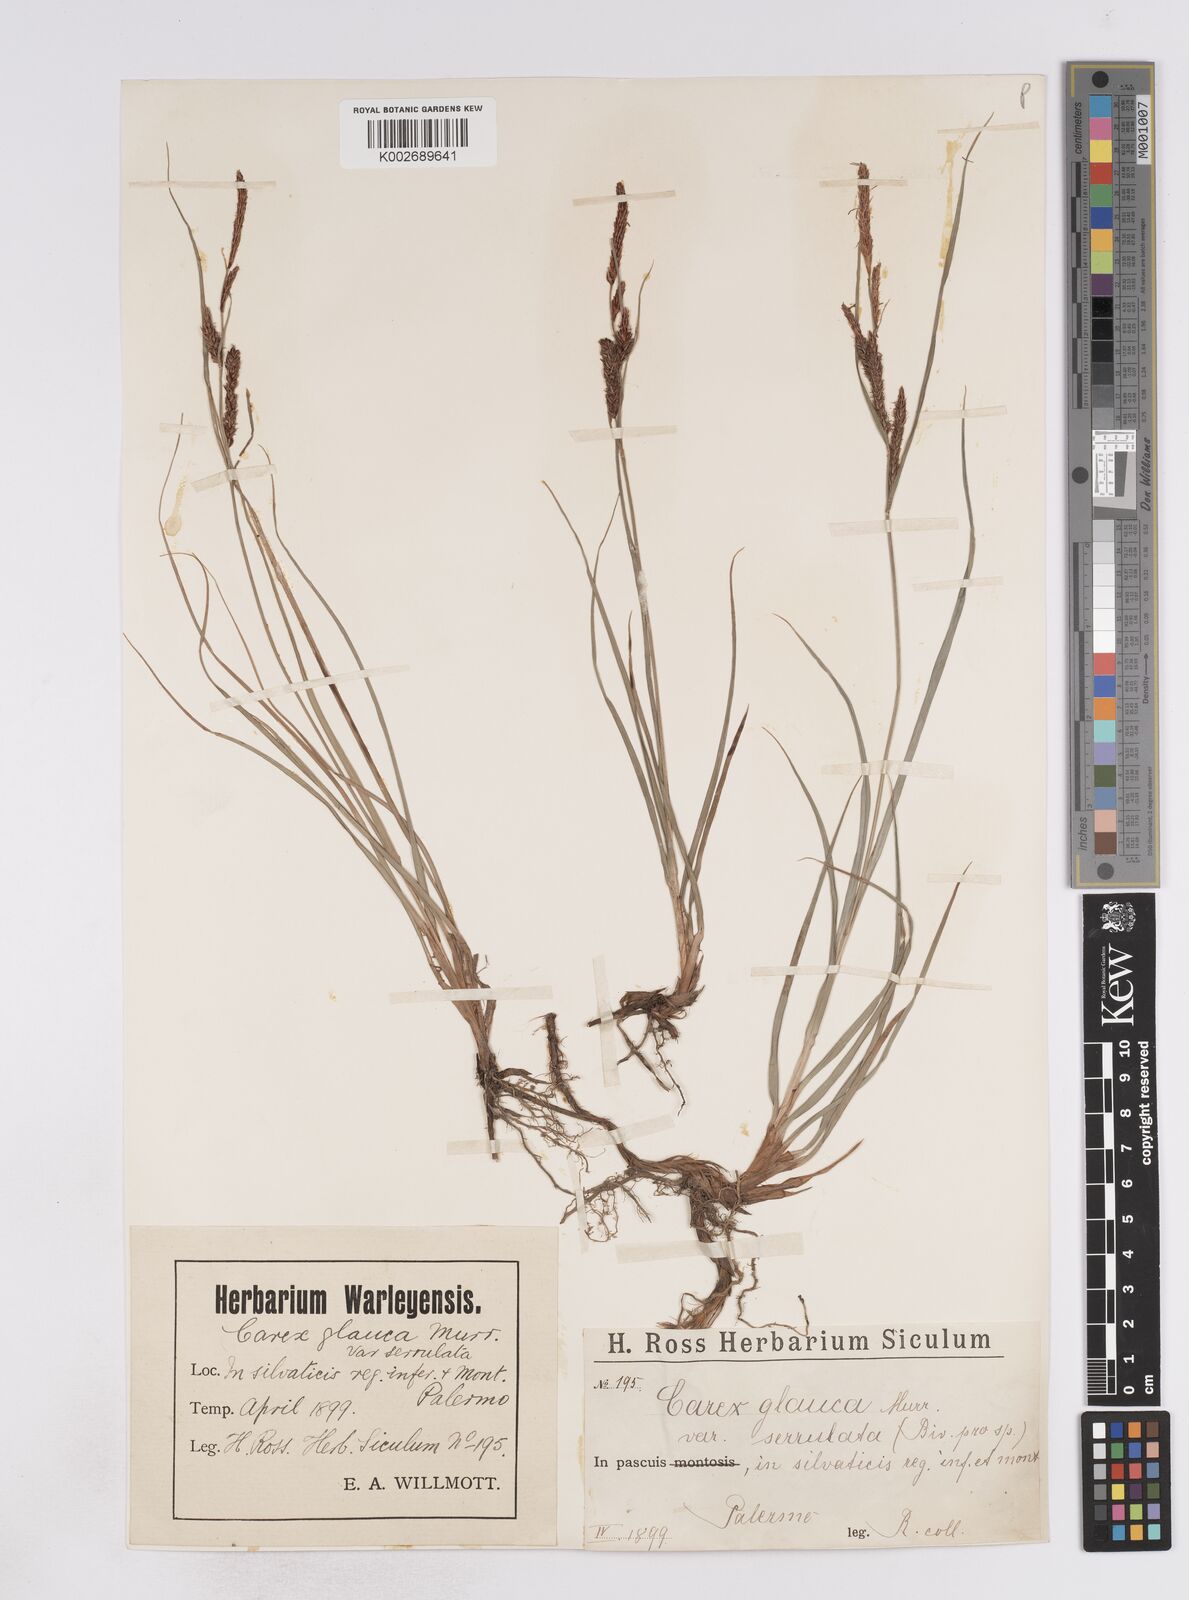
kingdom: Plantae
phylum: Tracheophyta
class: Liliopsida
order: Poales
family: Cyperaceae
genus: Carex
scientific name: Carex flacca
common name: Glaucous sedge
